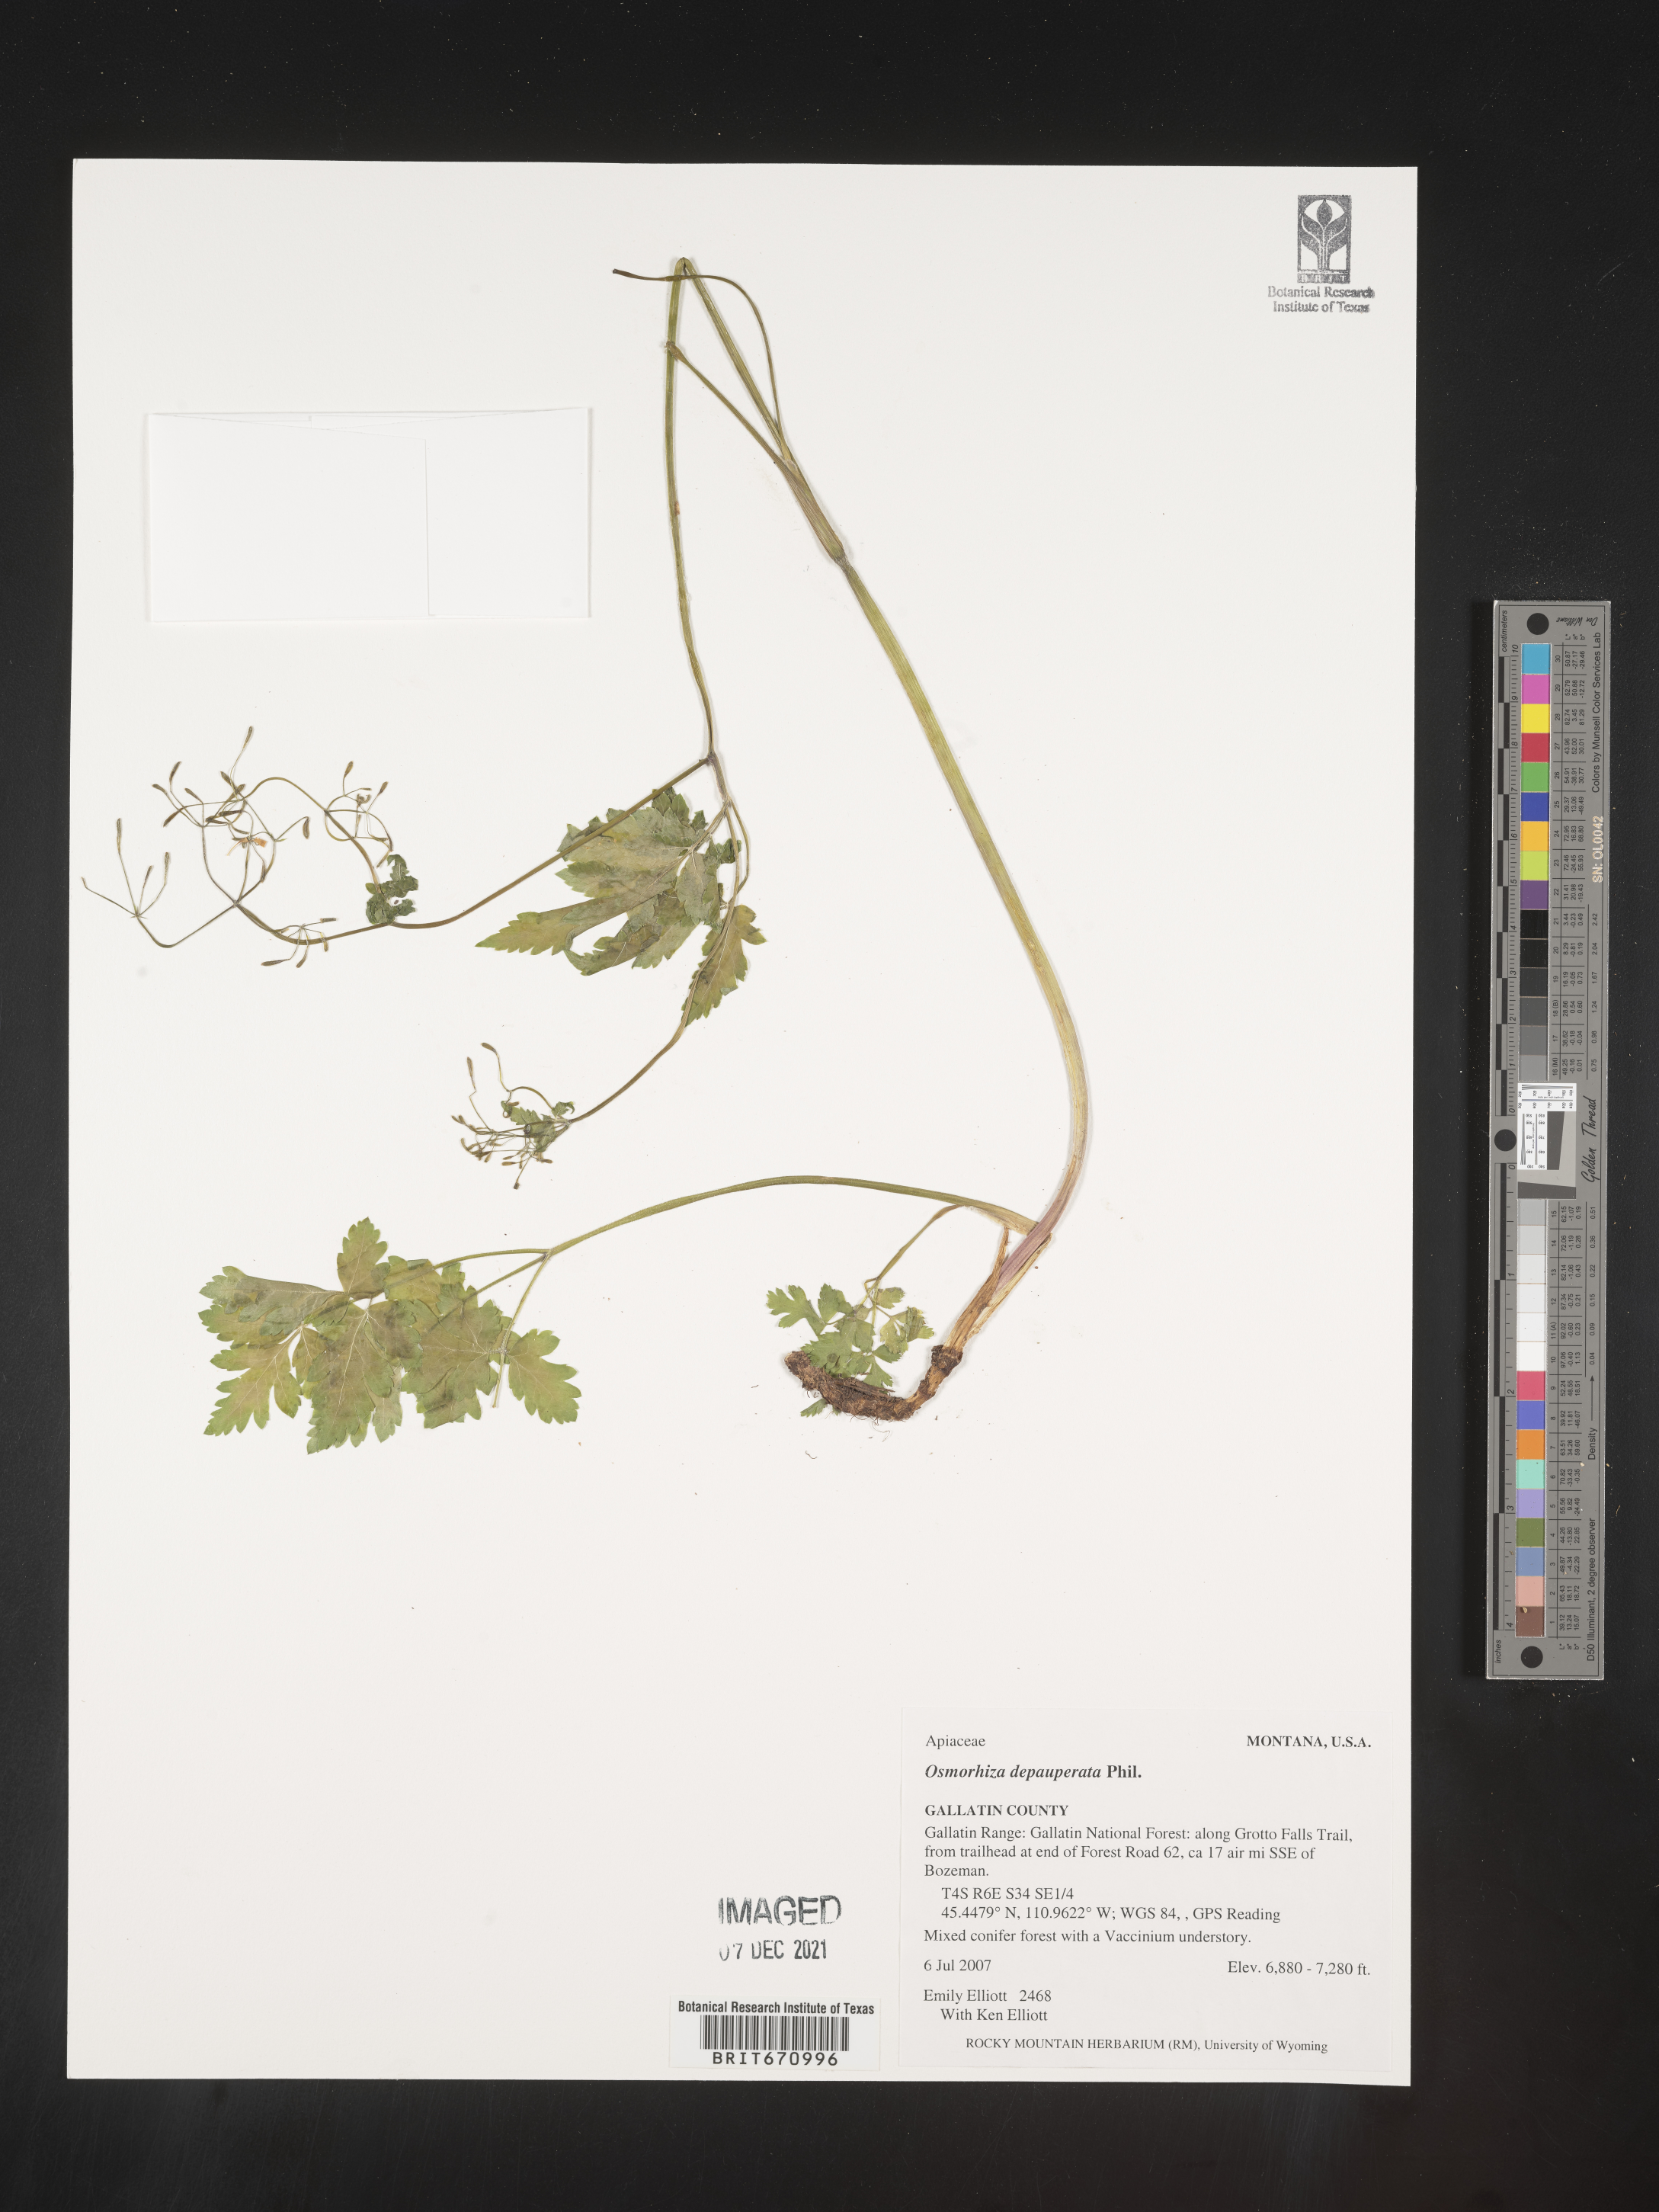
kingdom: Plantae
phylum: Tracheophyta
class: Magnoliopsida
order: Apiales
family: Apiaceae
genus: Osmorhiza
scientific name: Osmorhiza depauperata
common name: Blunt sweet cicely
